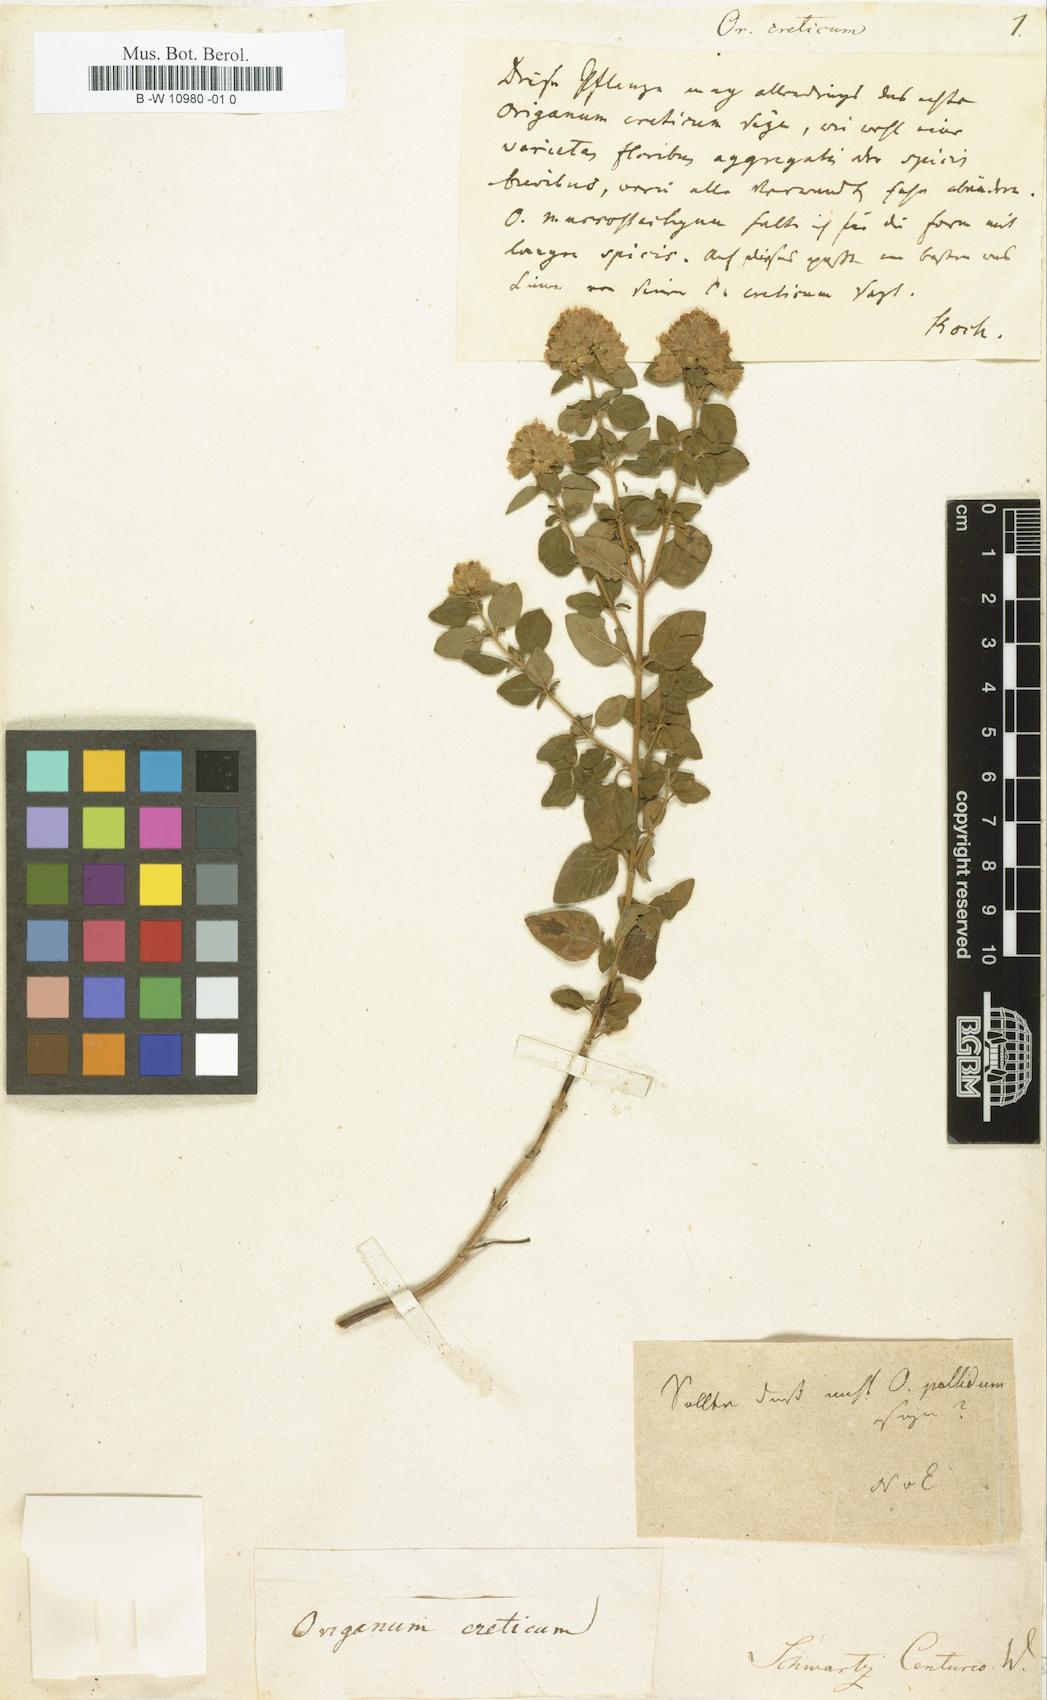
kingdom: Plantae
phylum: Tracheophyta
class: Magnoliopsida
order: Lamiales
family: Lamiaceae
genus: Origanum
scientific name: Origanum vulgare
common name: Wild marjoram
